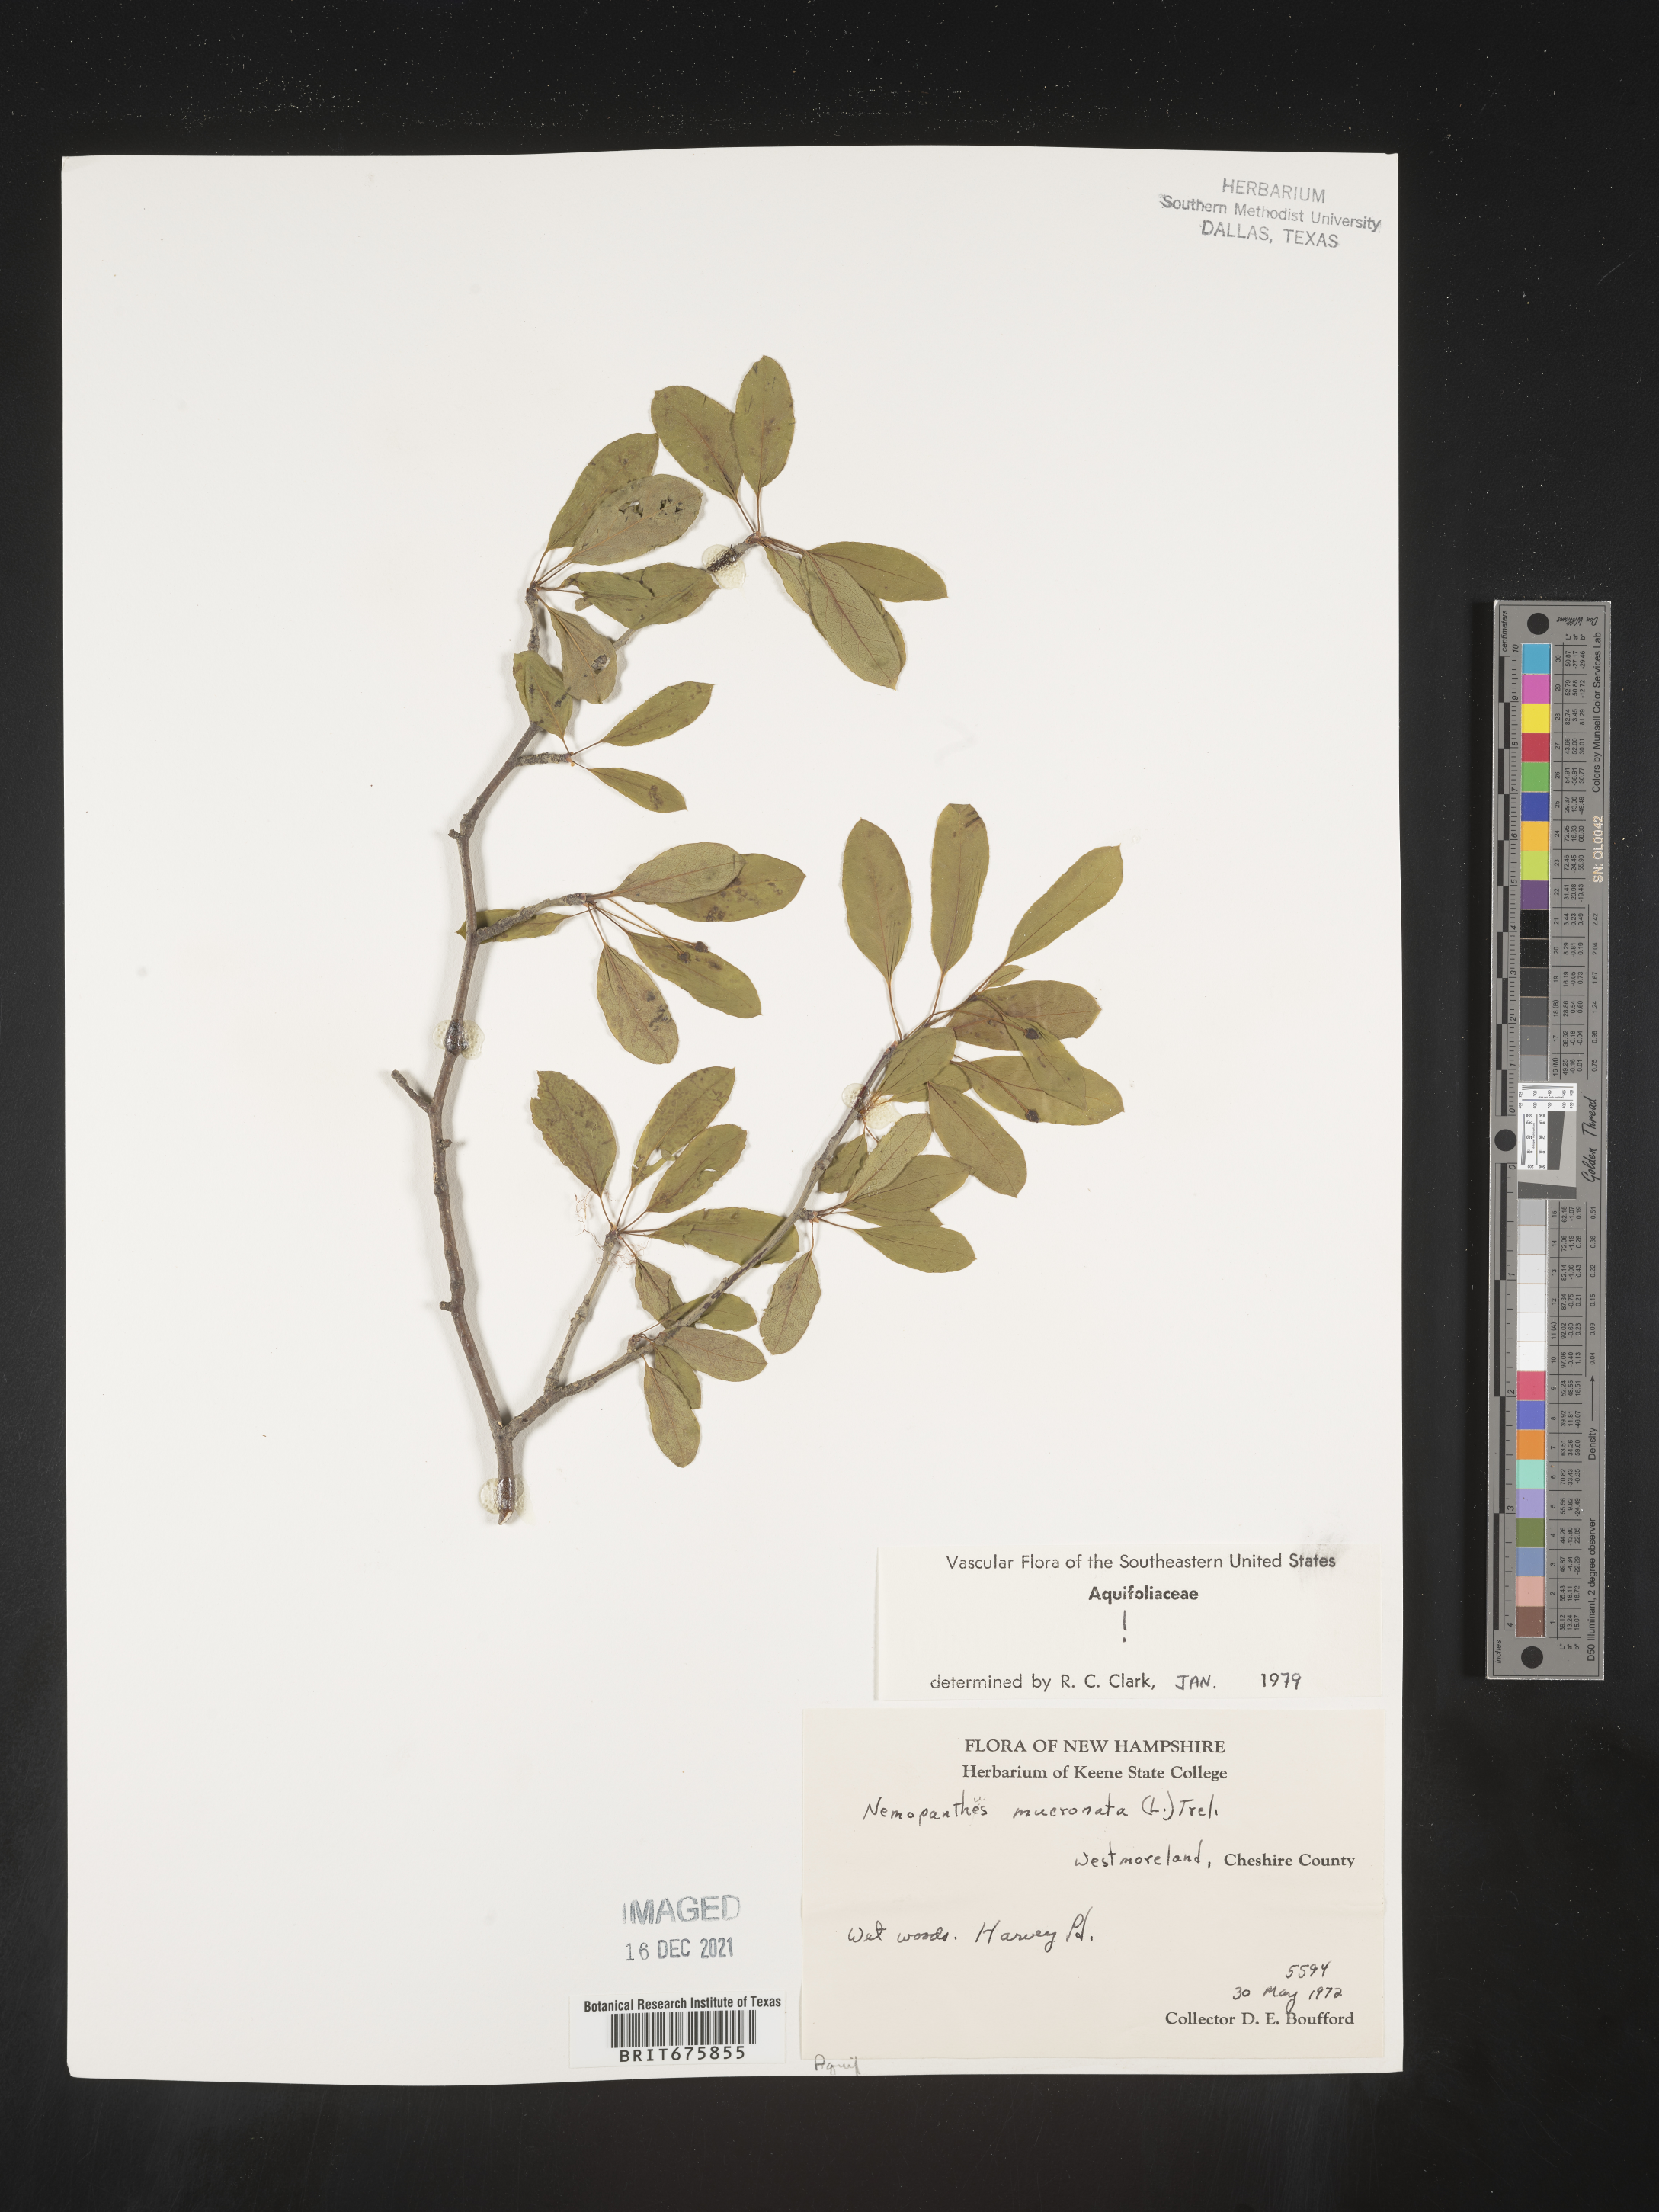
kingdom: Plantae
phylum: Tracheophyta
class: Magnoliopsida
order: Aquifoliales
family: Aquifoliaceae
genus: Ilex
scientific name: Ilex mucronata
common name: Catberry
